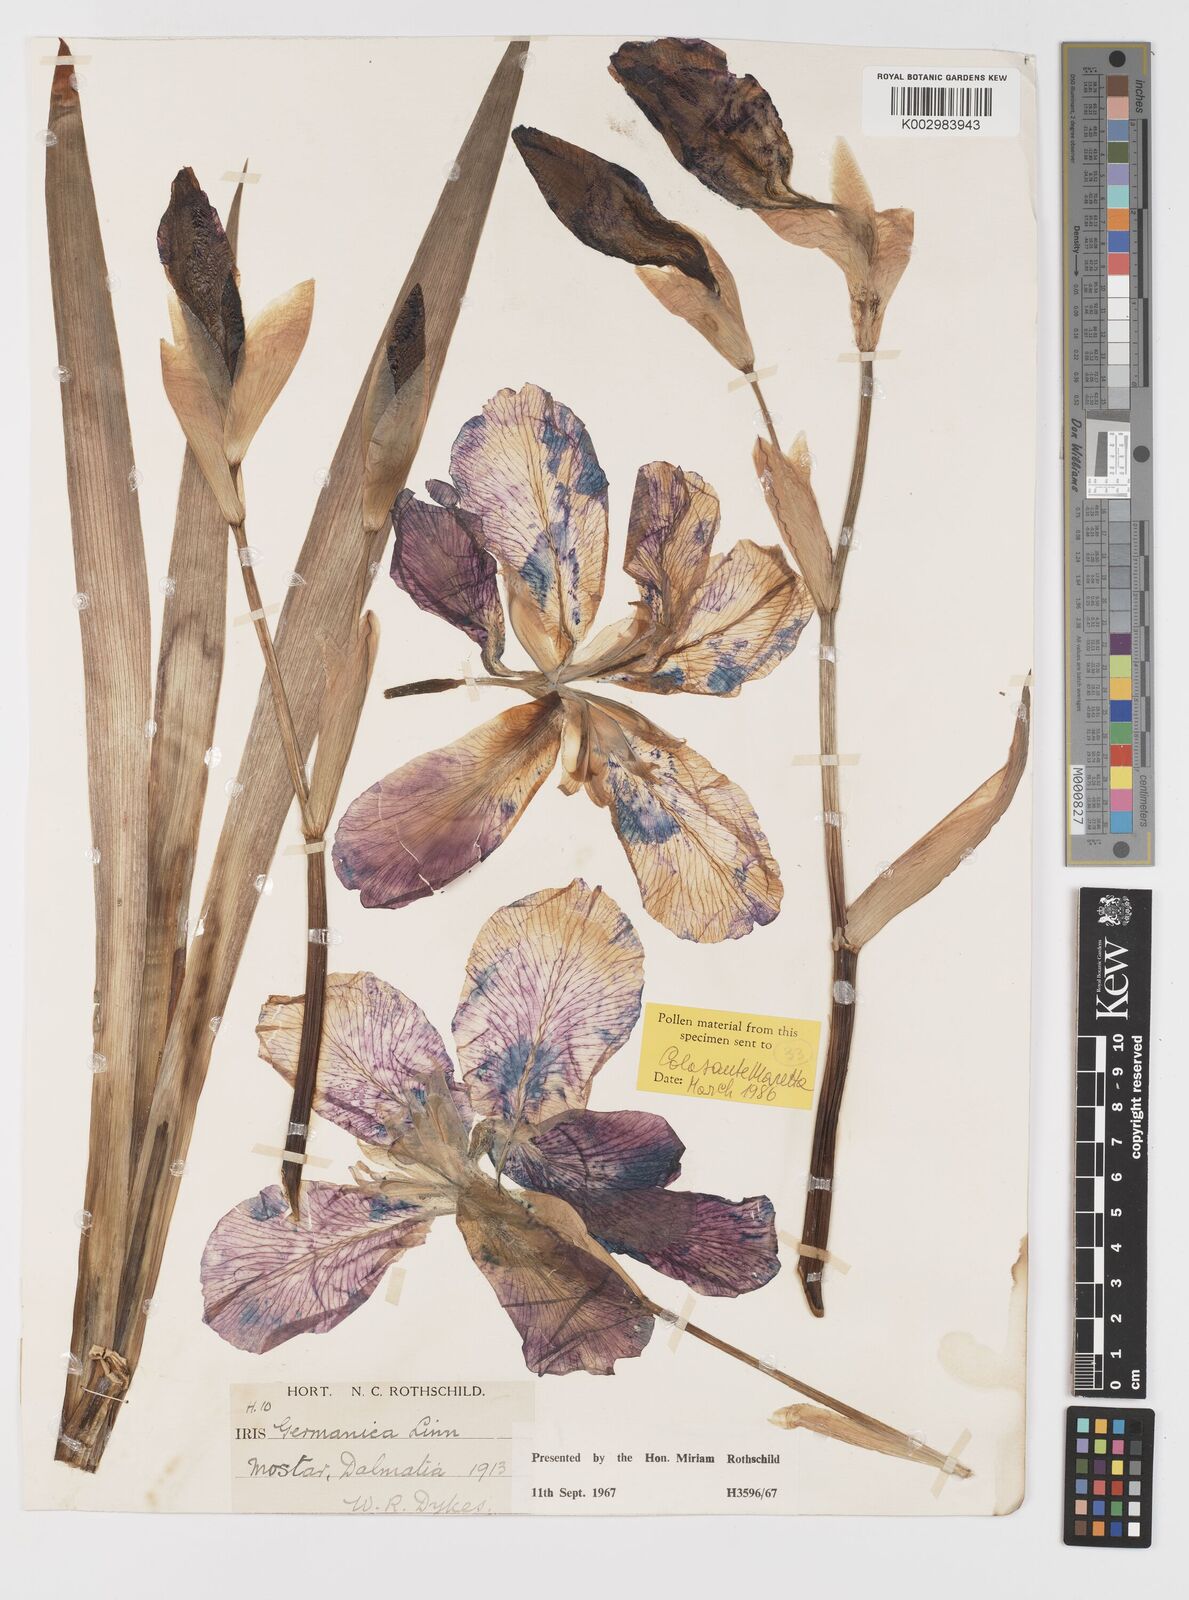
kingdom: Plantae
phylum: Tracheophyta
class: Liliopsida
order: Asparagales
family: Iridaceae
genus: Iris
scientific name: Iris germanica
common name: German iris
